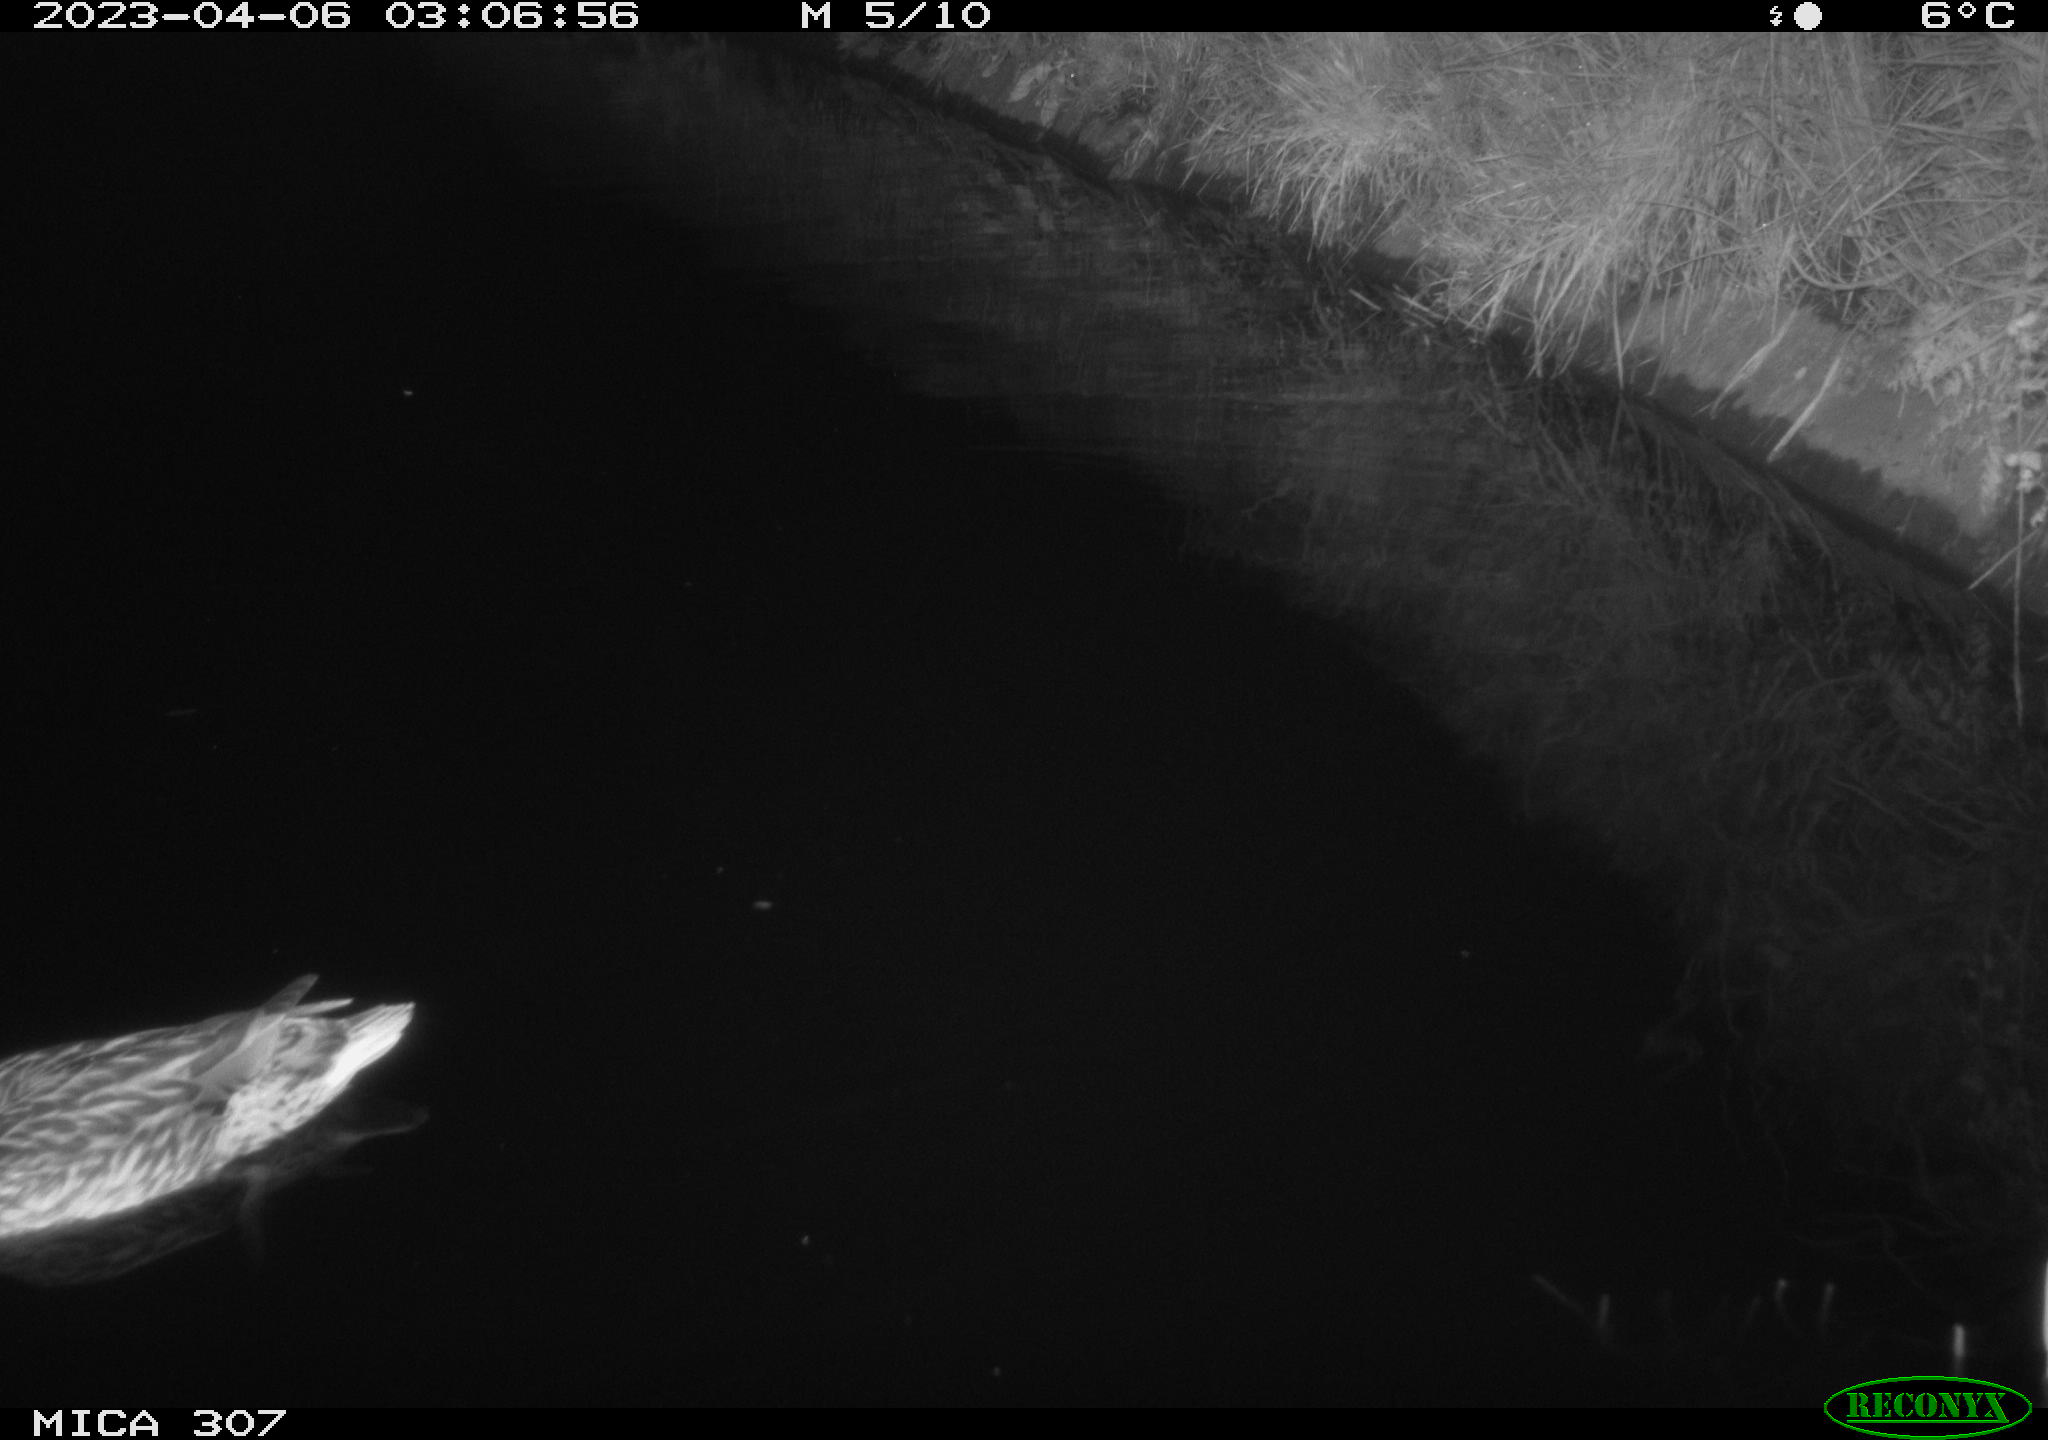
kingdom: Animalia
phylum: Chordata
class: Aves
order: Anseriformes
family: Anatidae
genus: Anas
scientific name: Anas
